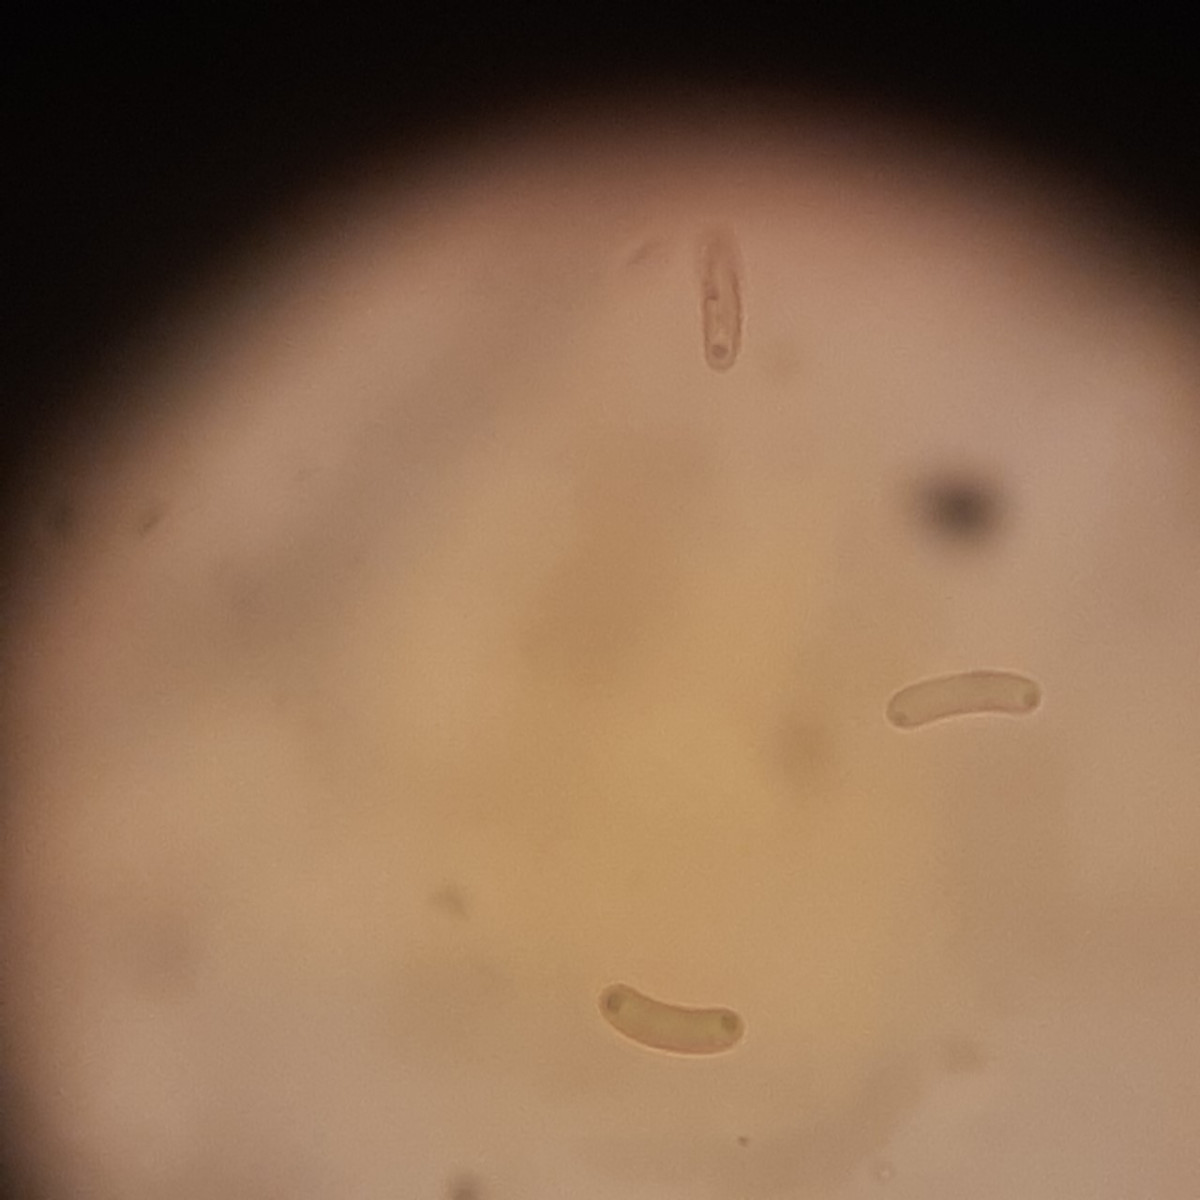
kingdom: Fungi
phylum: Ascomycota
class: Sordariomycetes
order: Xylariales
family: Diatrypaceae
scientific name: Diatrypaceae
